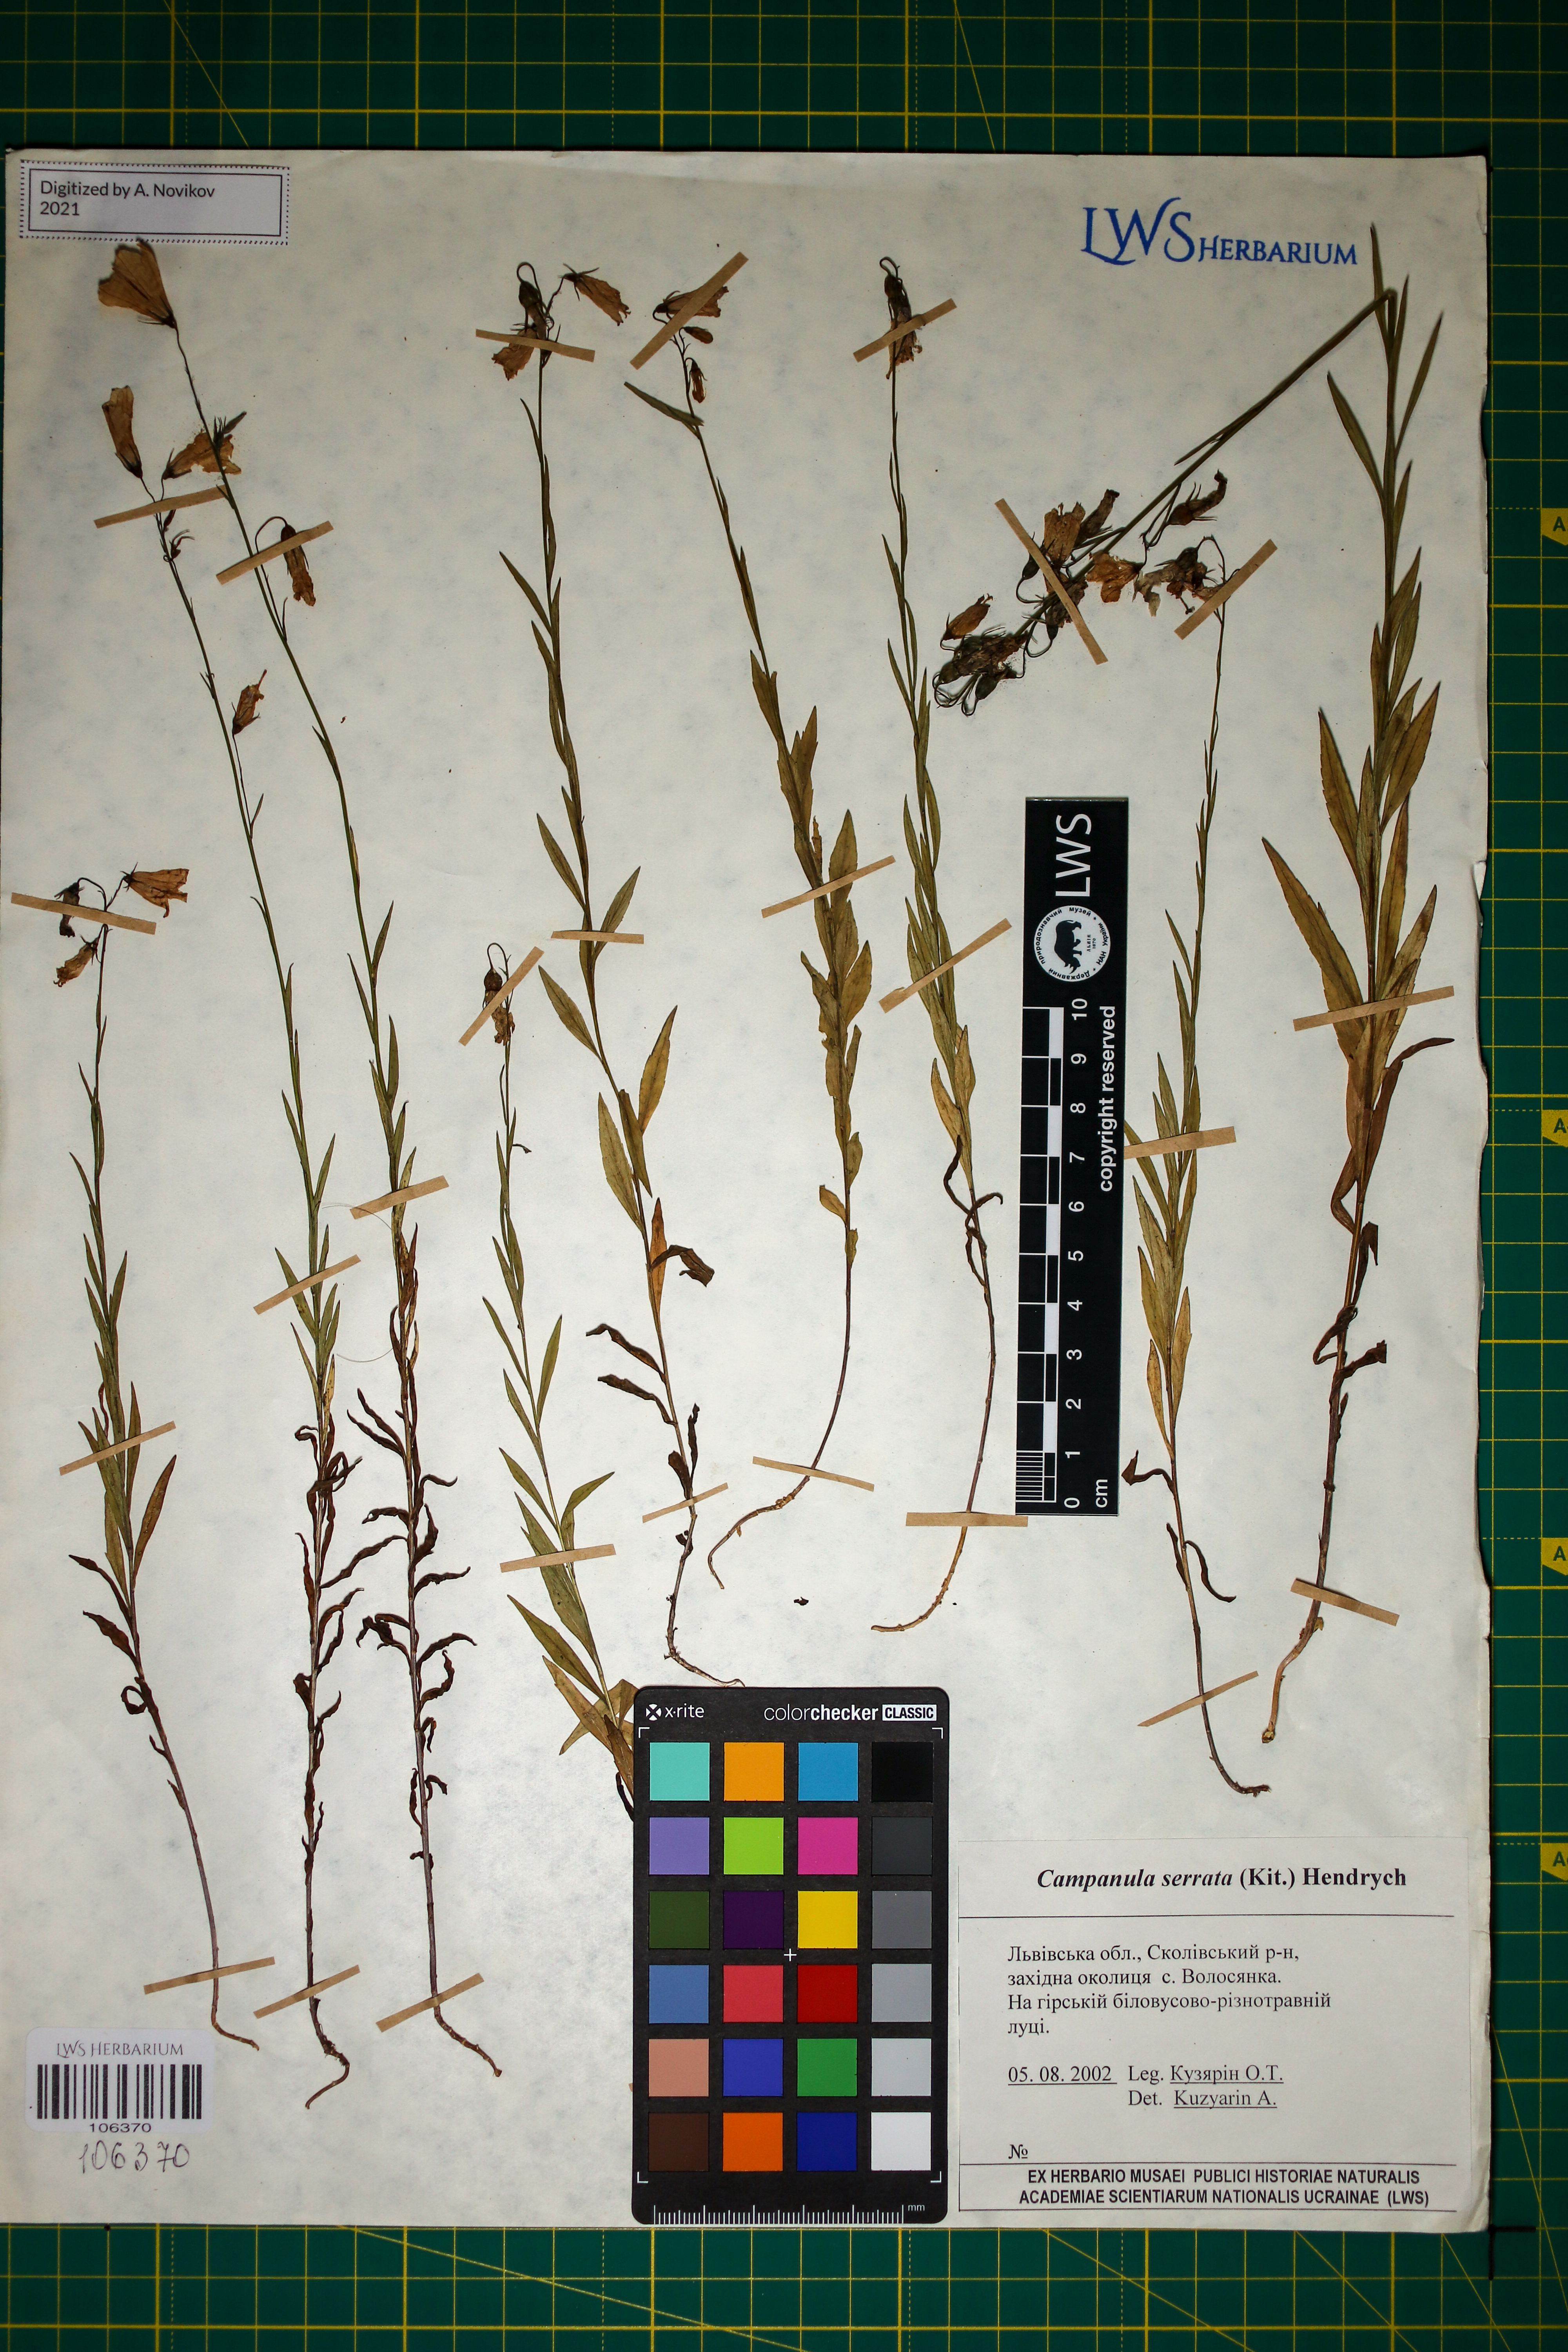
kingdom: Plantae
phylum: Tracheophyta
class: Magnoliopsida
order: Asterales
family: Campanulaceae
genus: Campanula
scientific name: Campanula serrata
